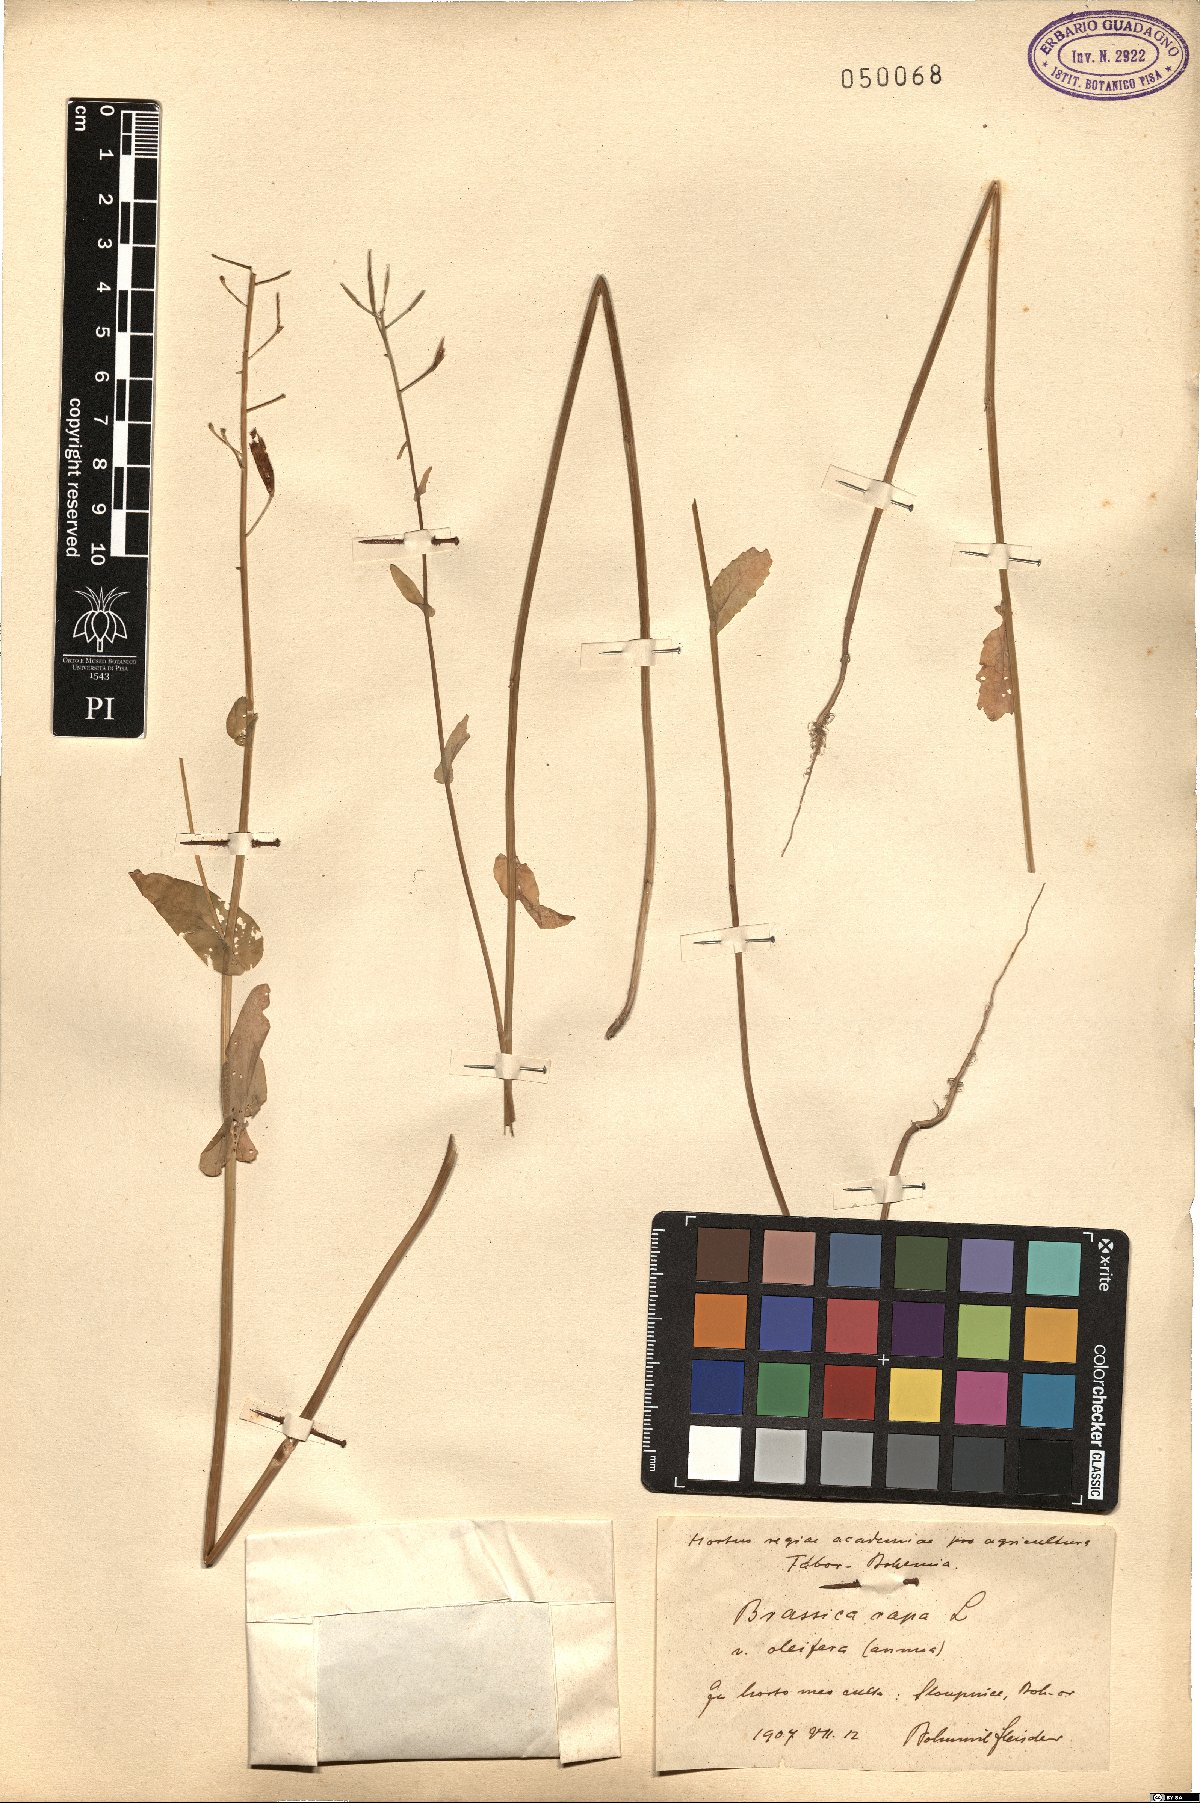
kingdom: Plantae
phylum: Tracheophyta
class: Magnoliopsida
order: Brassicales
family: Brassicaceae
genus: Brassica
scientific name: Brassica rapa
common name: Field mustard
